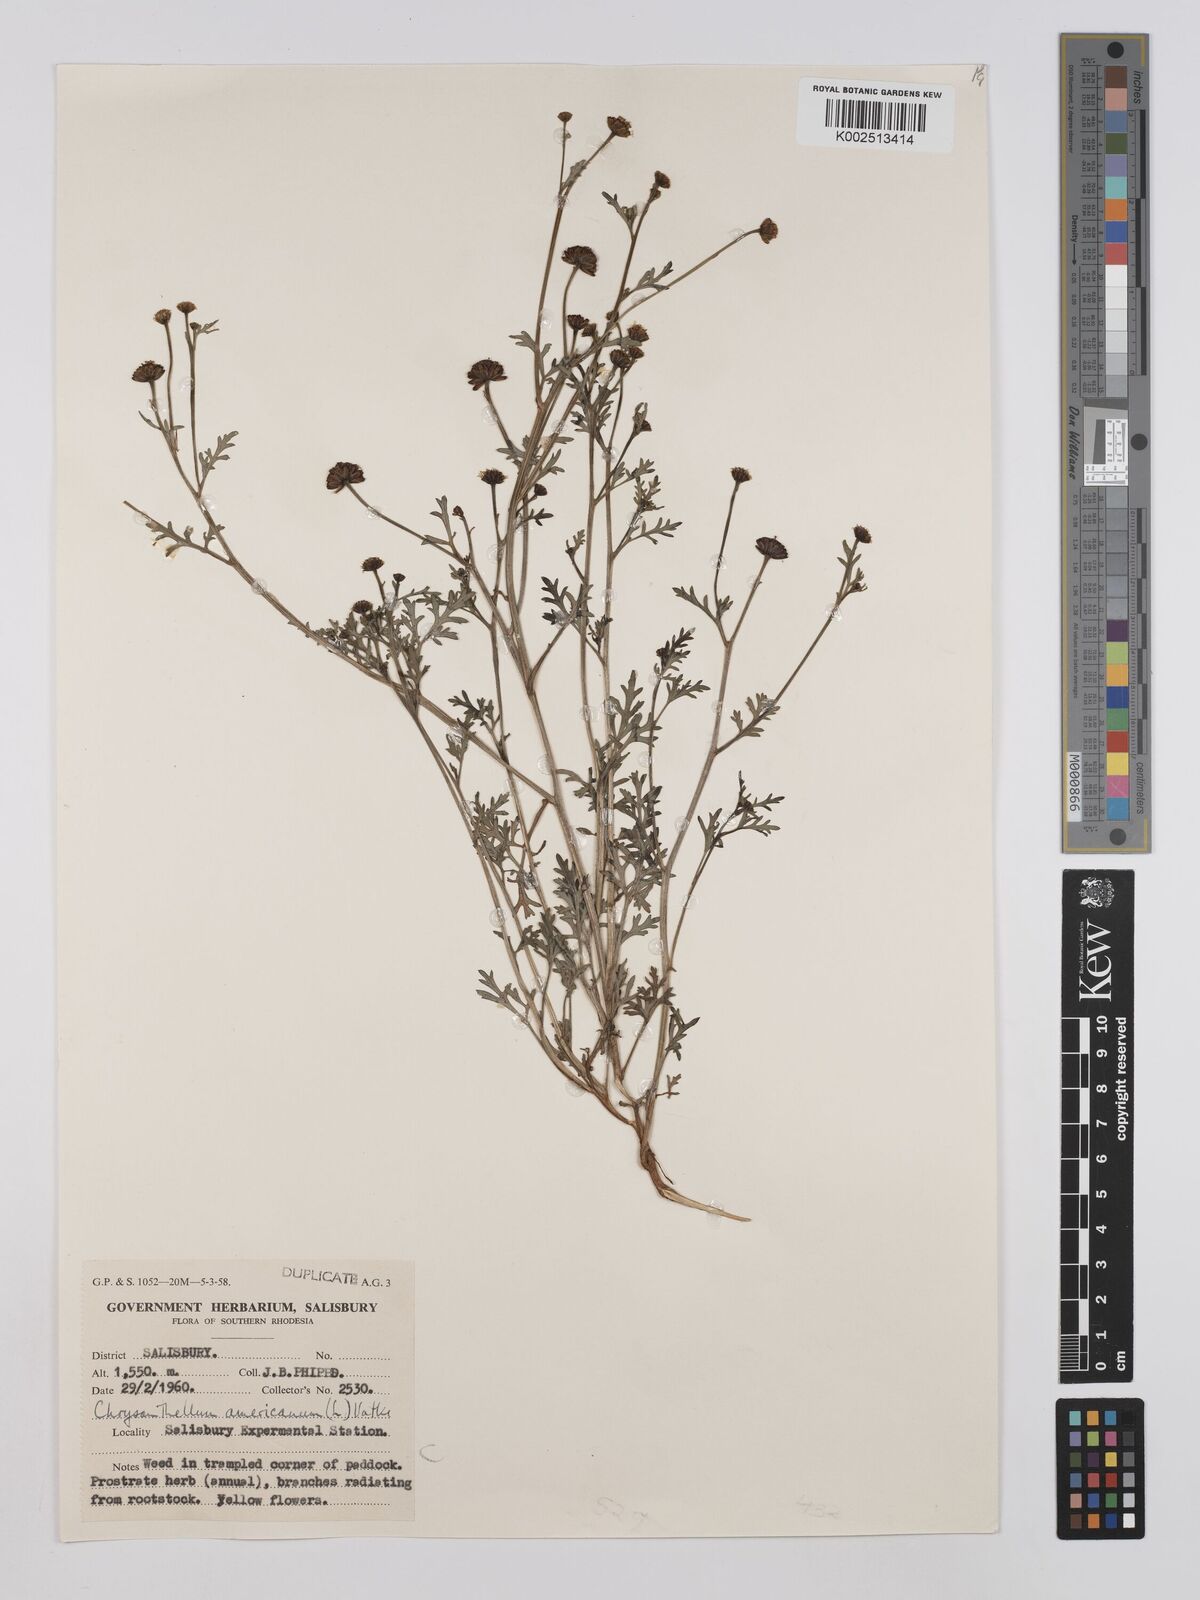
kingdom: Plantae
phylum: Tracheophyta
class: Magnoliopsida
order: Asterales
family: Asteraceae
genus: Chrysanthellum
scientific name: Chrysanthellum indicum
